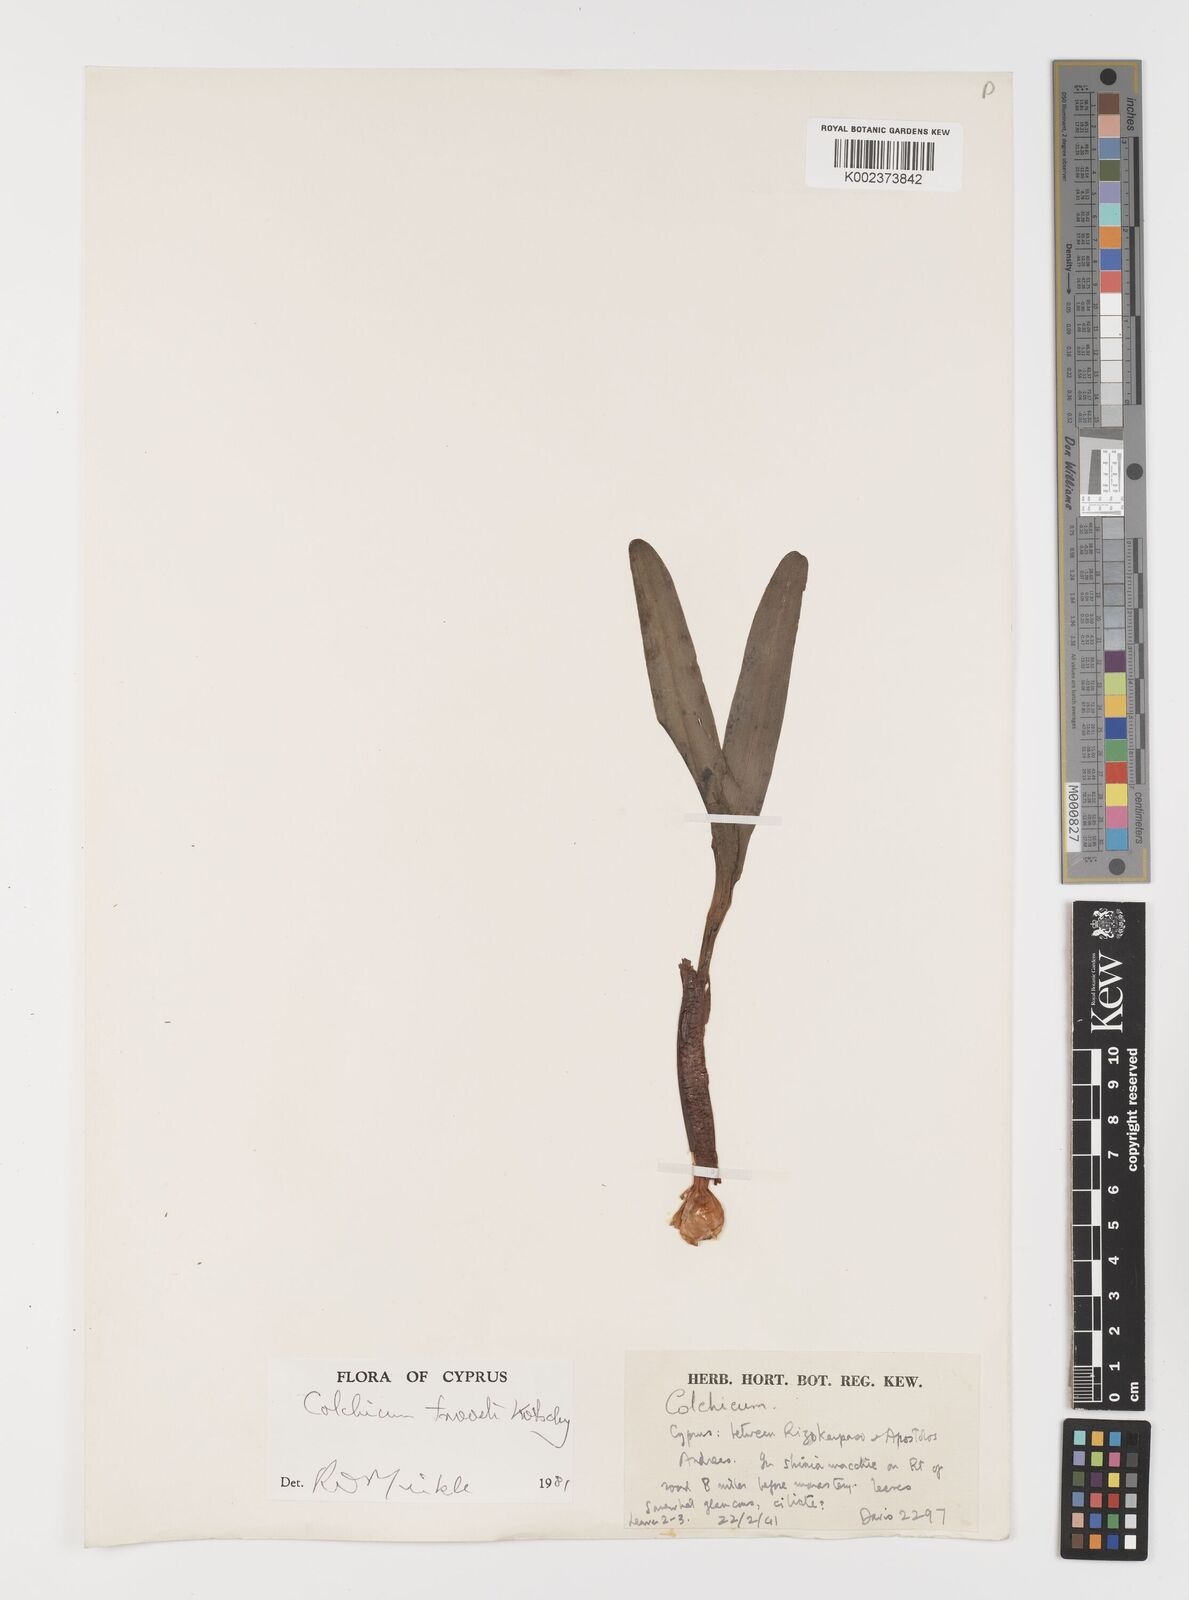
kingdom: Plantae
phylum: Tracheophyta
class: Liliopsida
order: Liliales
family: Colchicaceae
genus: Colchicum
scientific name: Colchicum troodi
